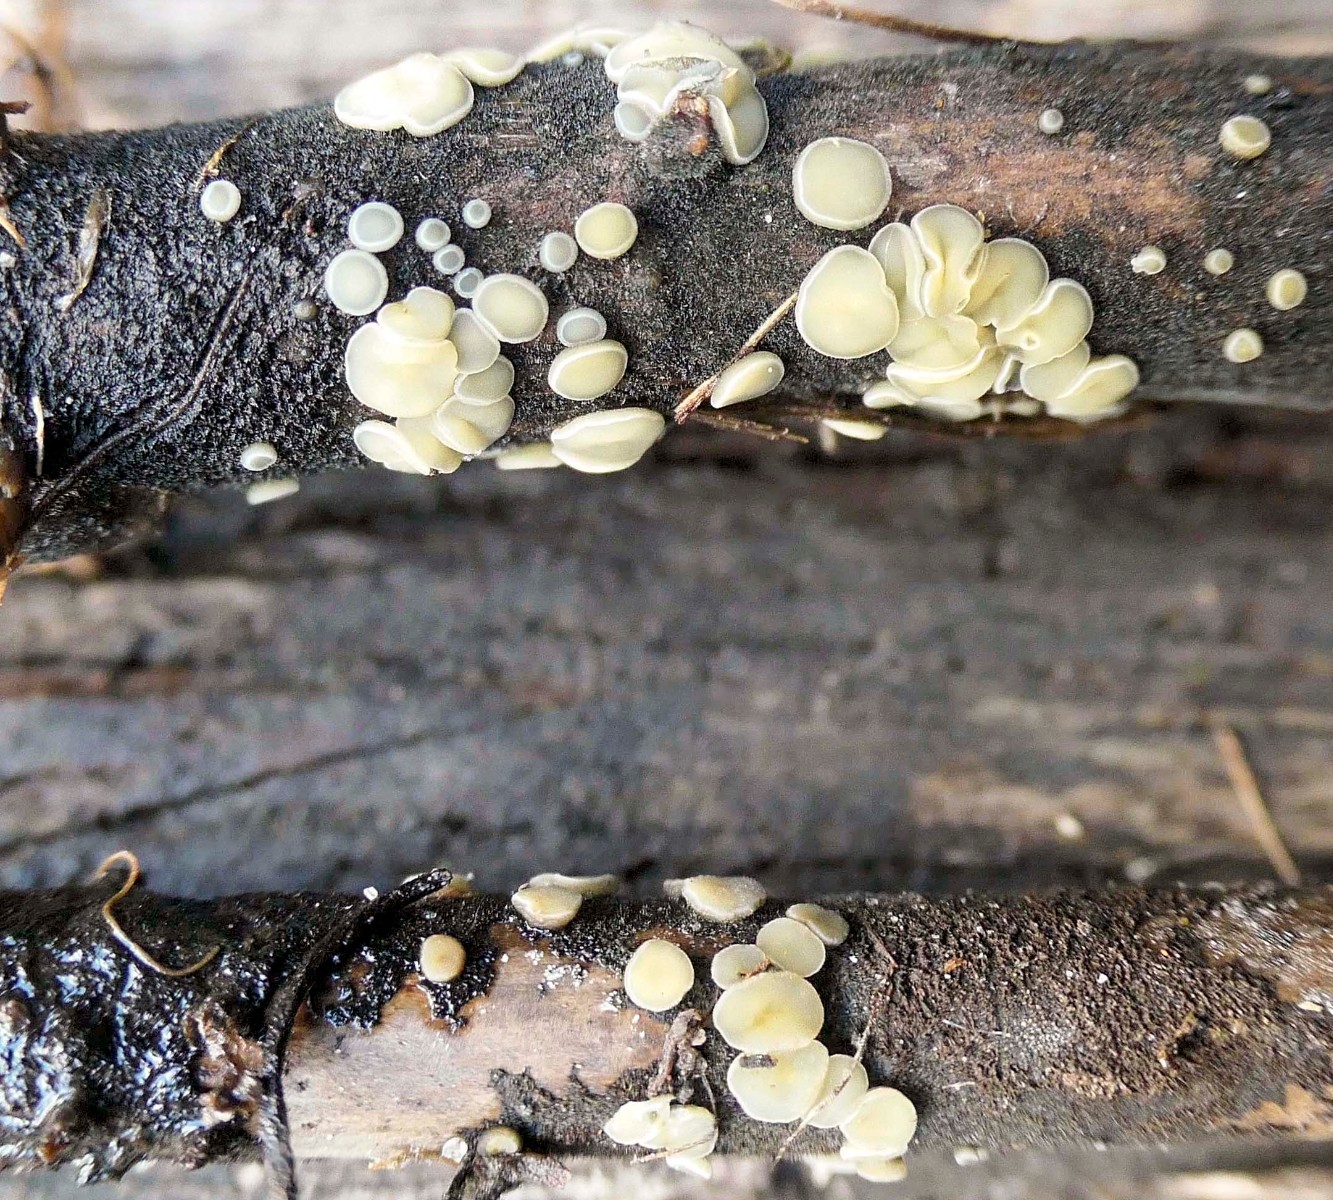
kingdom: Fungi
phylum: Ascomycota
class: Leotiomycetes
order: Helotiales
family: Mollisiaceae
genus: Trichobelonium
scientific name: Trichobelonium kneiffii
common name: tagrør-gråskive
